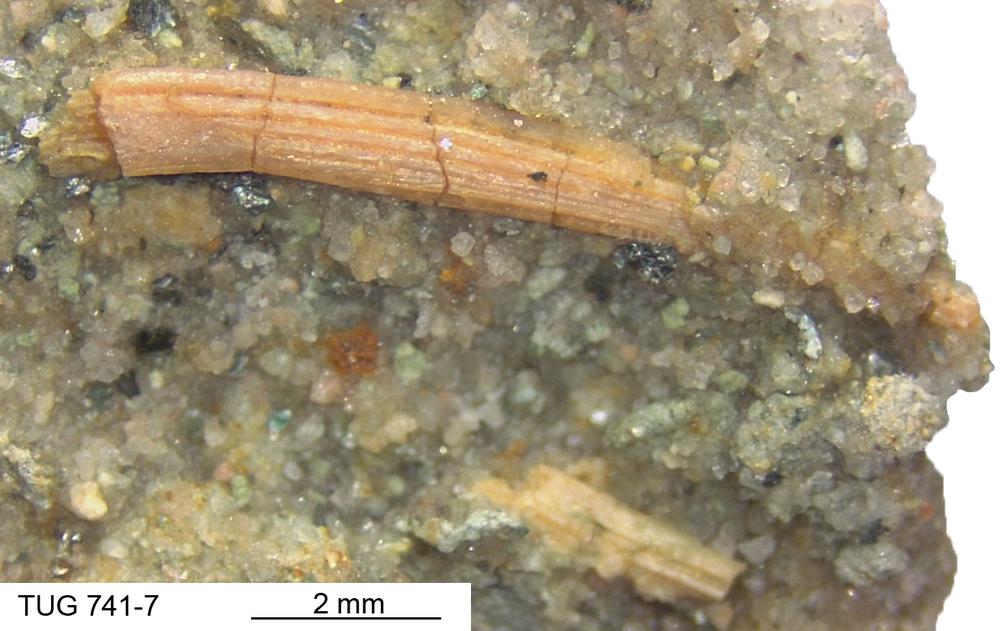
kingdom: Animalia
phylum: Chordata
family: Acanthodidae
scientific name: Acanthodidae
